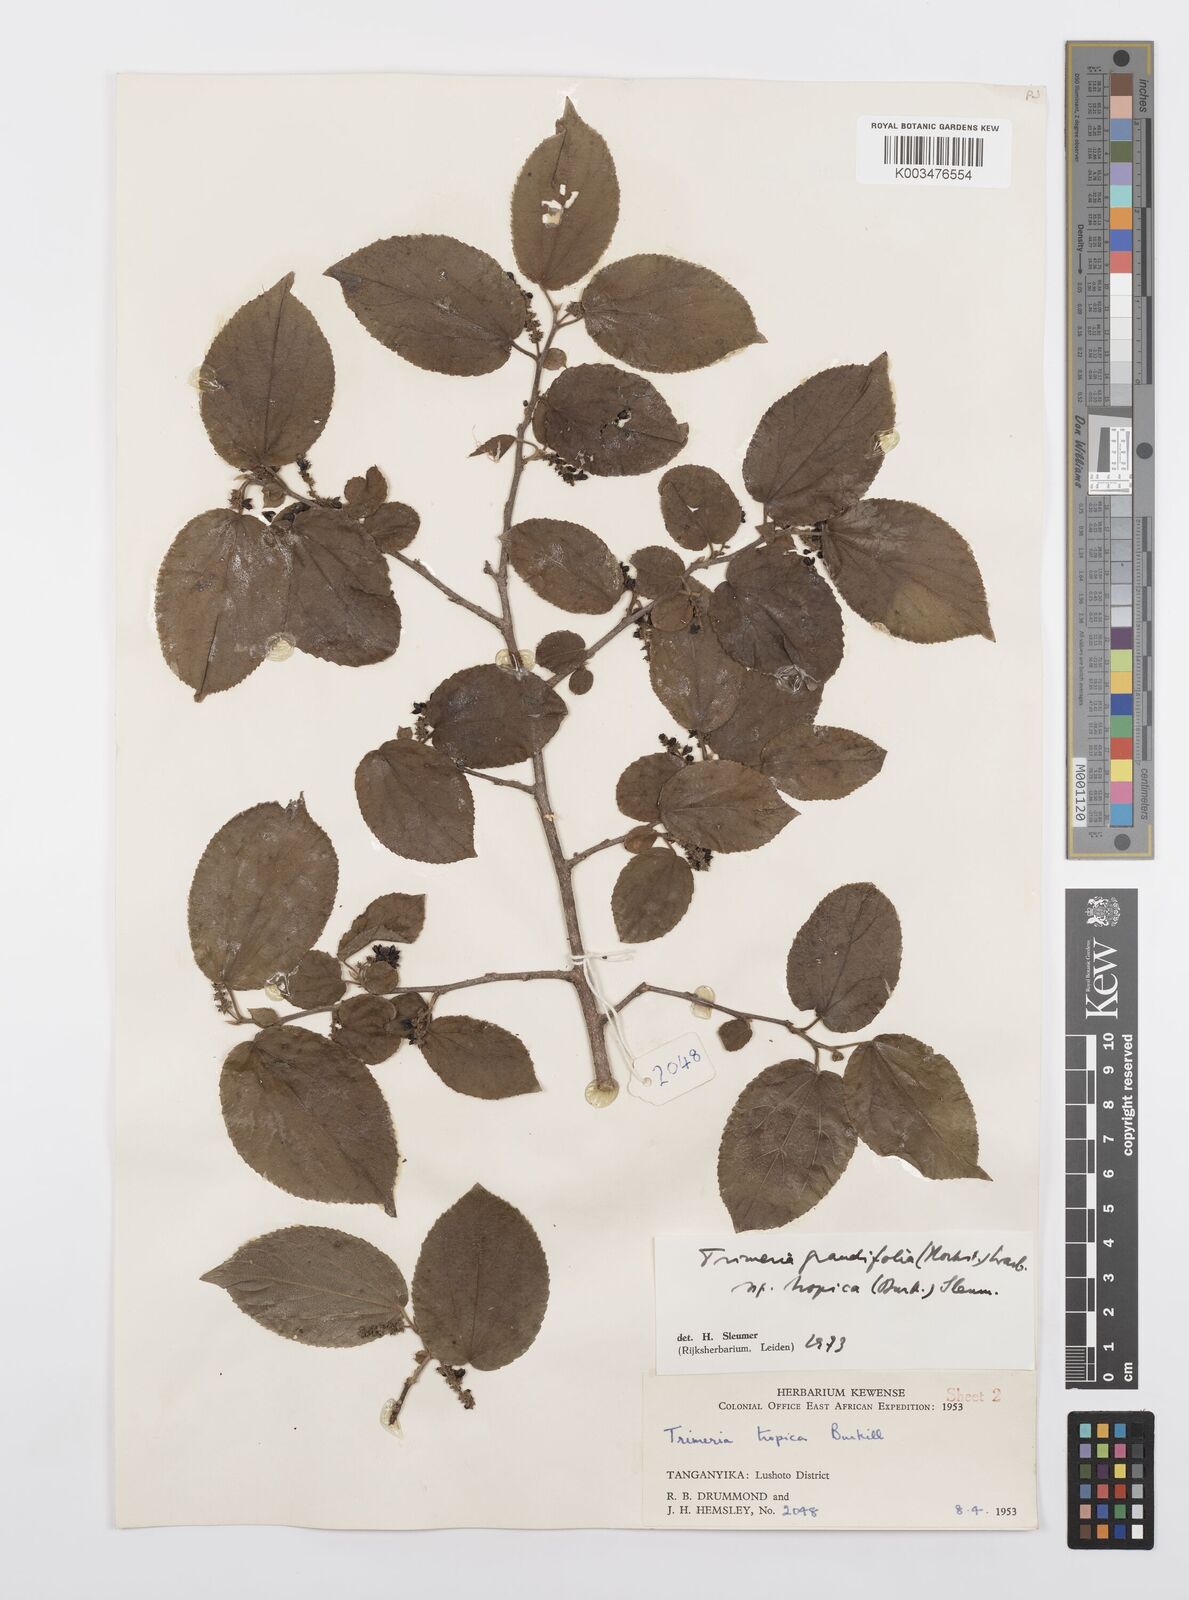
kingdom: Plantae
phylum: Tracheophyta
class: Magnoliopsida
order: Malpighiales
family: Salicaceae
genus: Trimeria
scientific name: Trimeria grandifolia
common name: Wild mulberry
